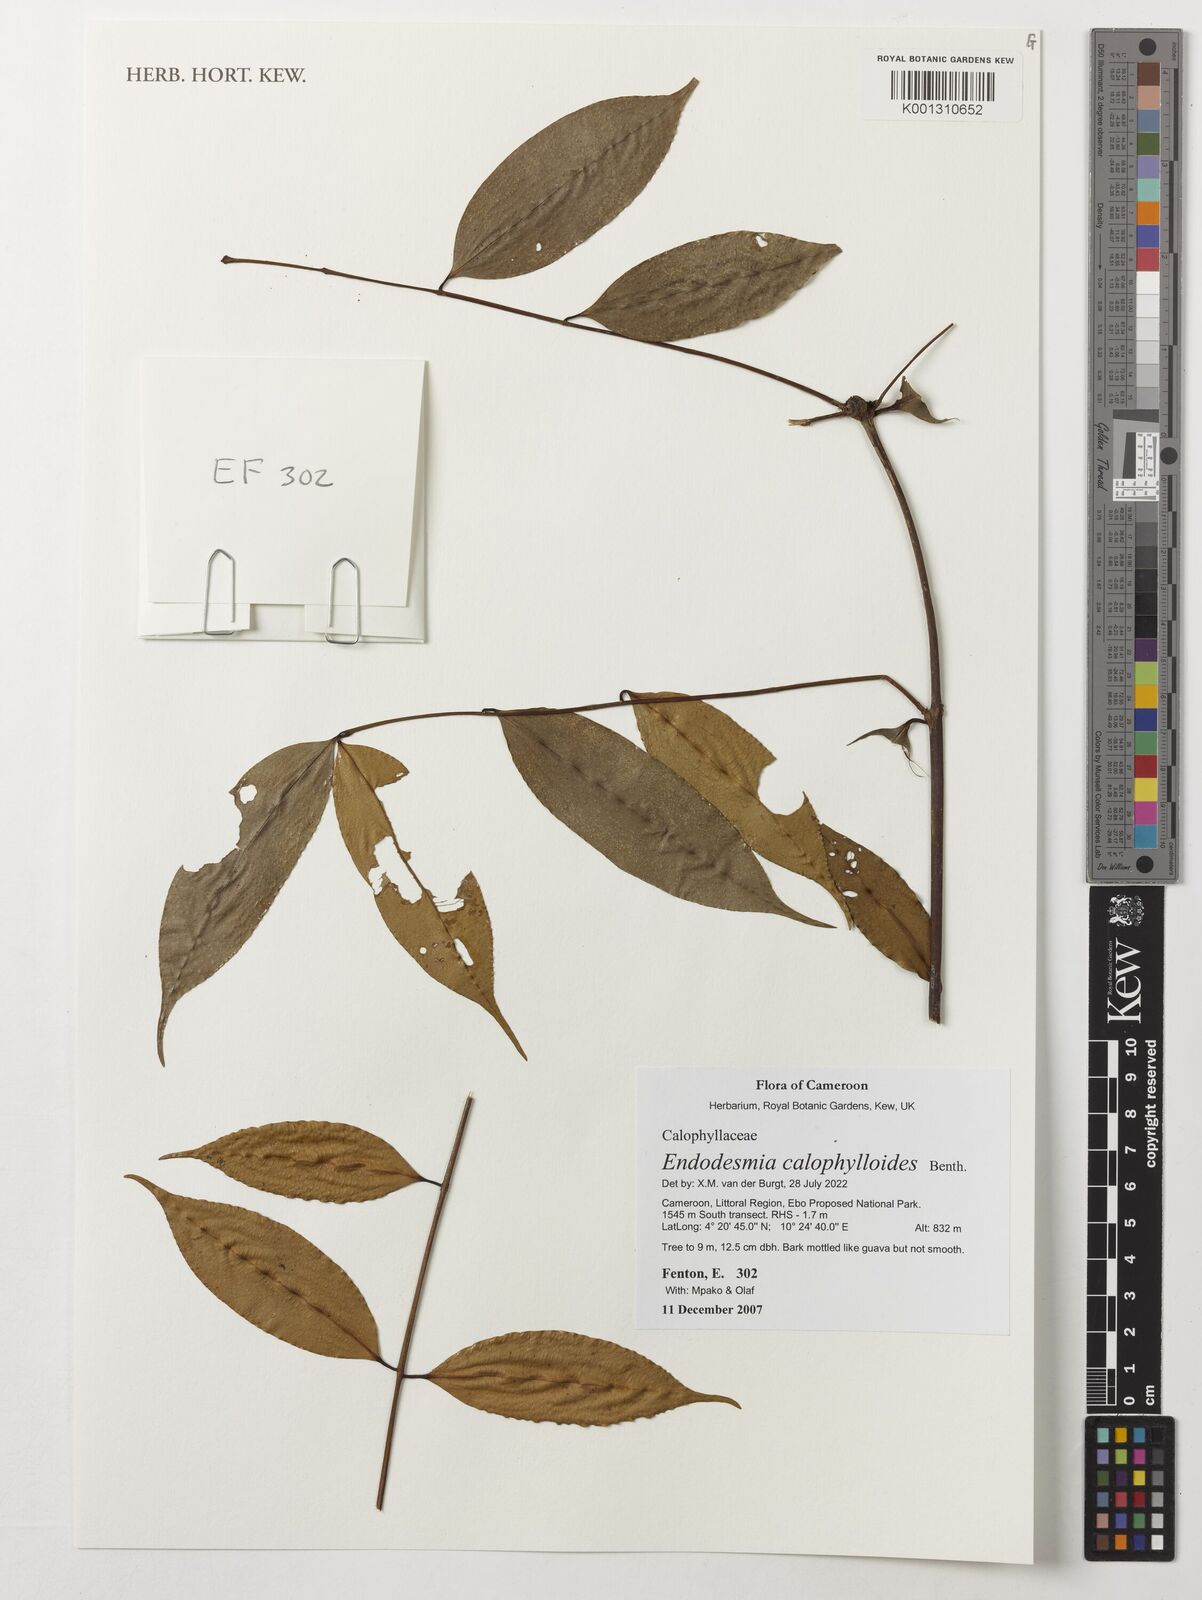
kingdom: Plantae
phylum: Tracheophyta
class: Magnoliopsida
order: Malpighiales
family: Calophyllaceae
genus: Endodesmia
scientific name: Endodesmia calophylloides
